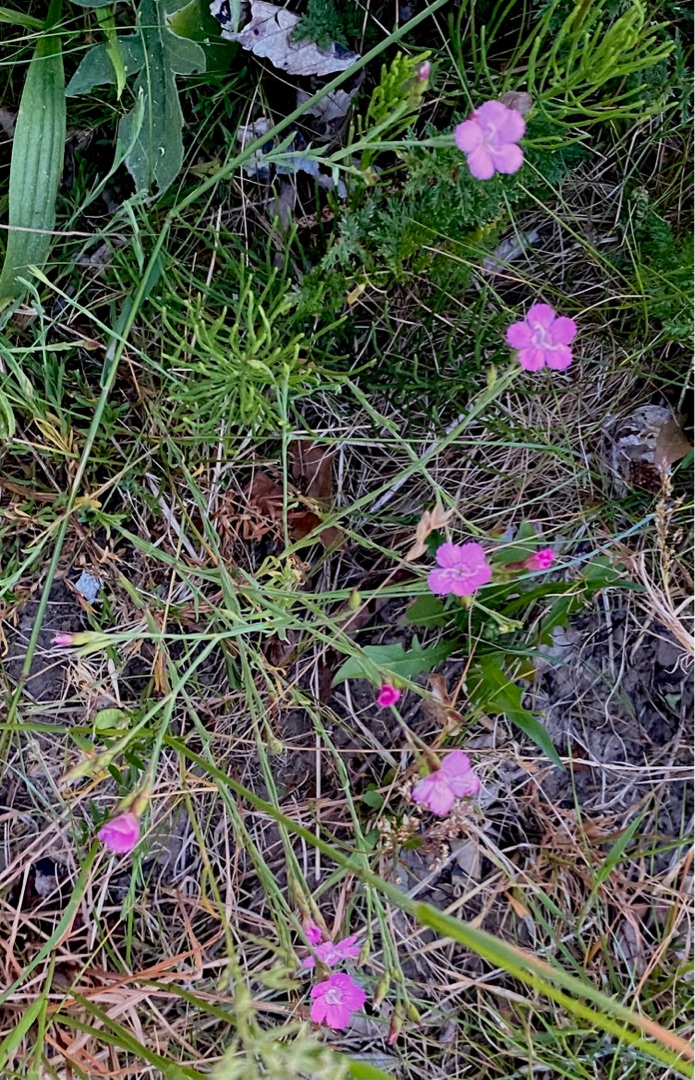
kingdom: Plantae
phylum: Tracheophyta
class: Magnoliopsida
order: Caryophyllales
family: Caryophyllaceae
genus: Dianthus
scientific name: Dianthus deltoides
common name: Bakke-nellike
